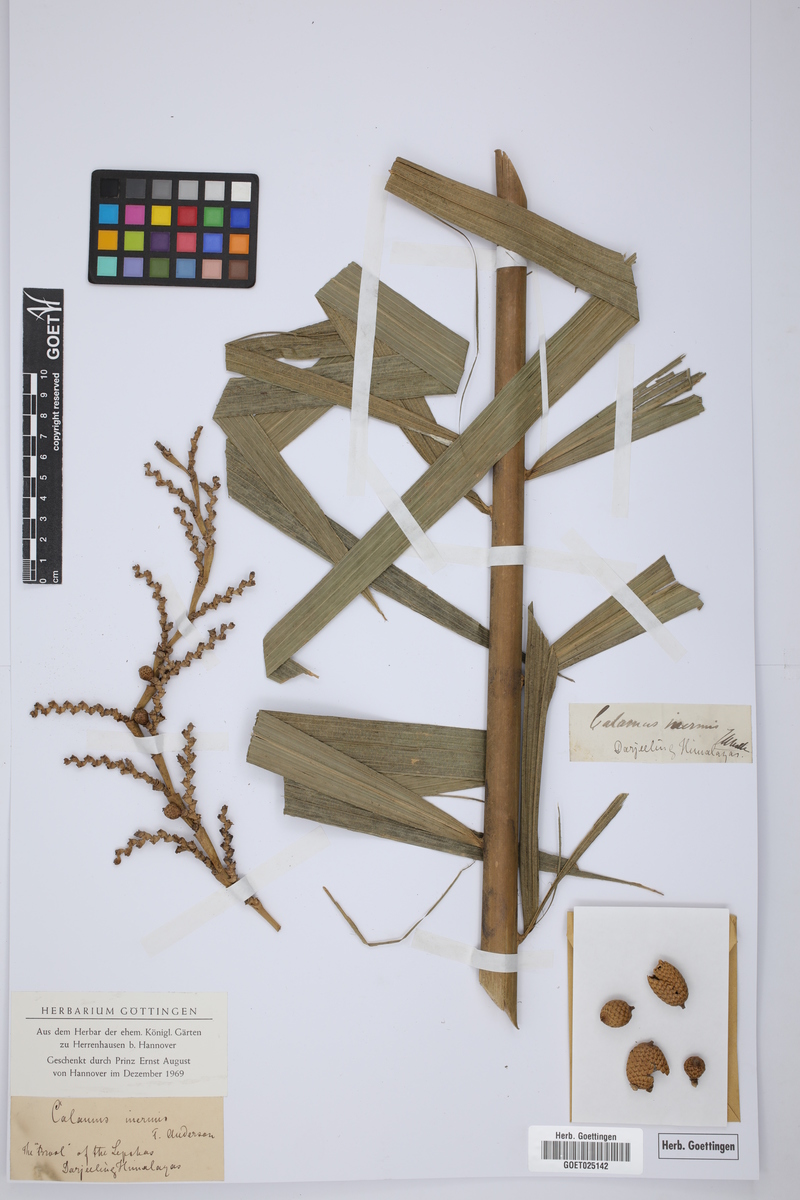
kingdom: Plantae
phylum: Tracheophyta
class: Liliopsida
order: Arecales
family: Arecaceae
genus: Calamus
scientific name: Calamus inermis
